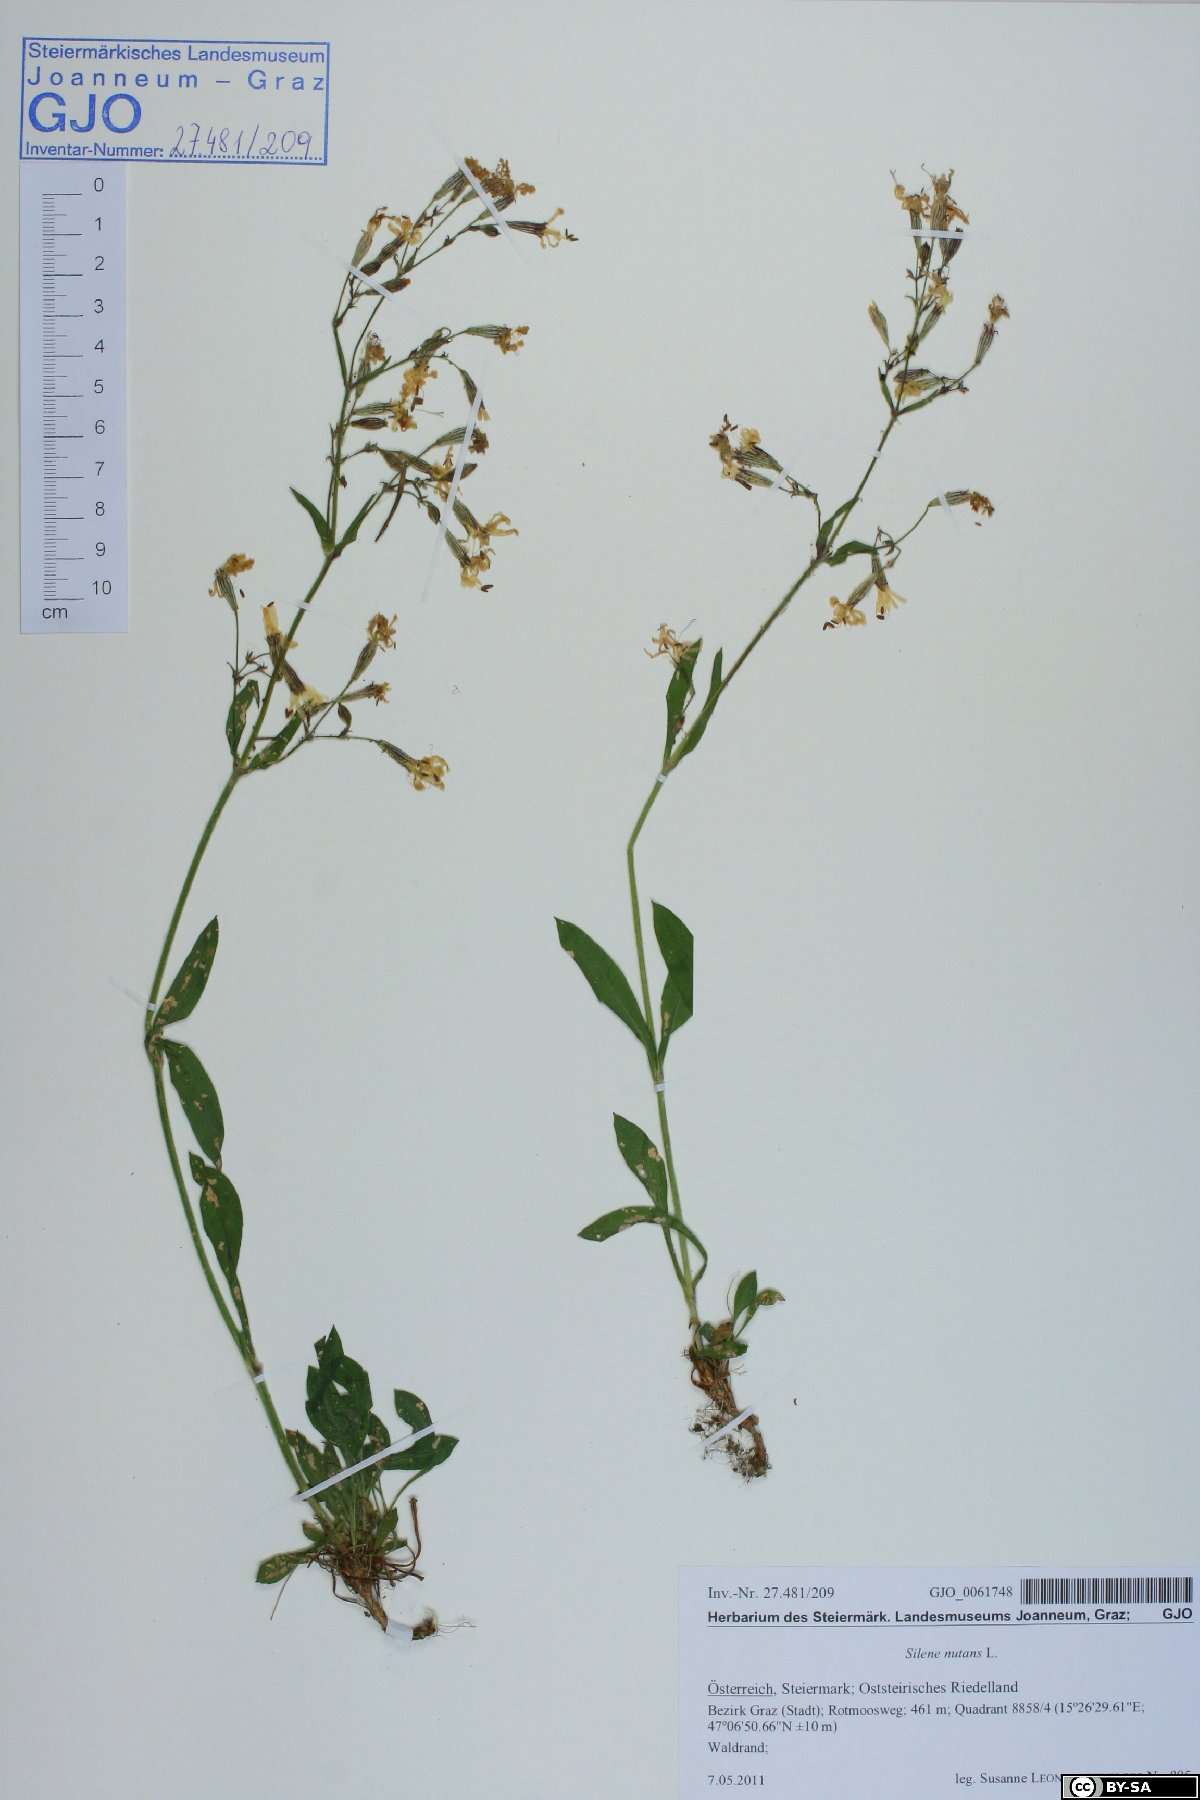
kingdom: Plantae
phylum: Tracheophyta
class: Magnoliopsida
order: Caryophyllales
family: Caryophyllaceae
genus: Silene
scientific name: Silene nutans
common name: Nottingham catchfly
